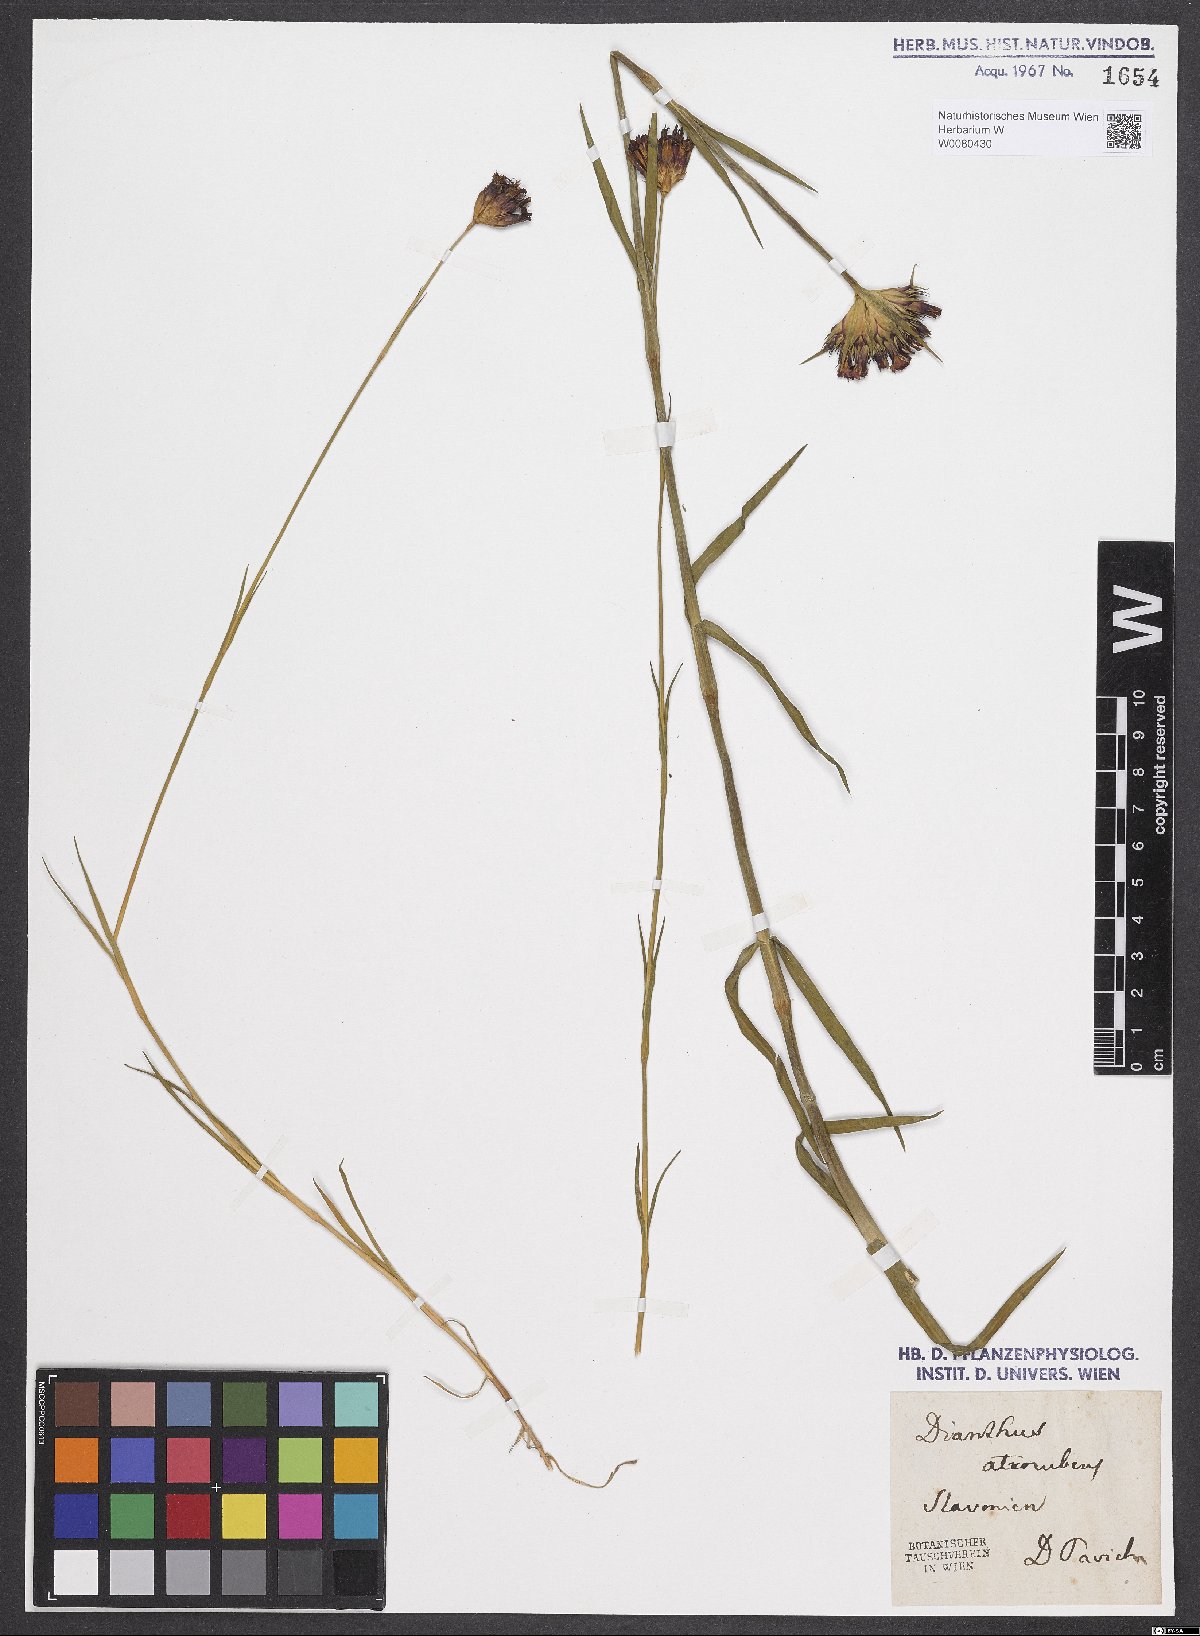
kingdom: Plantae
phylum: Tracheophyta
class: Magnoliopsida
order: Caryophyllales
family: Caryophyllaceae
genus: Dianthus
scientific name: Dianthus carthusianorum
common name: Carthusian pink
